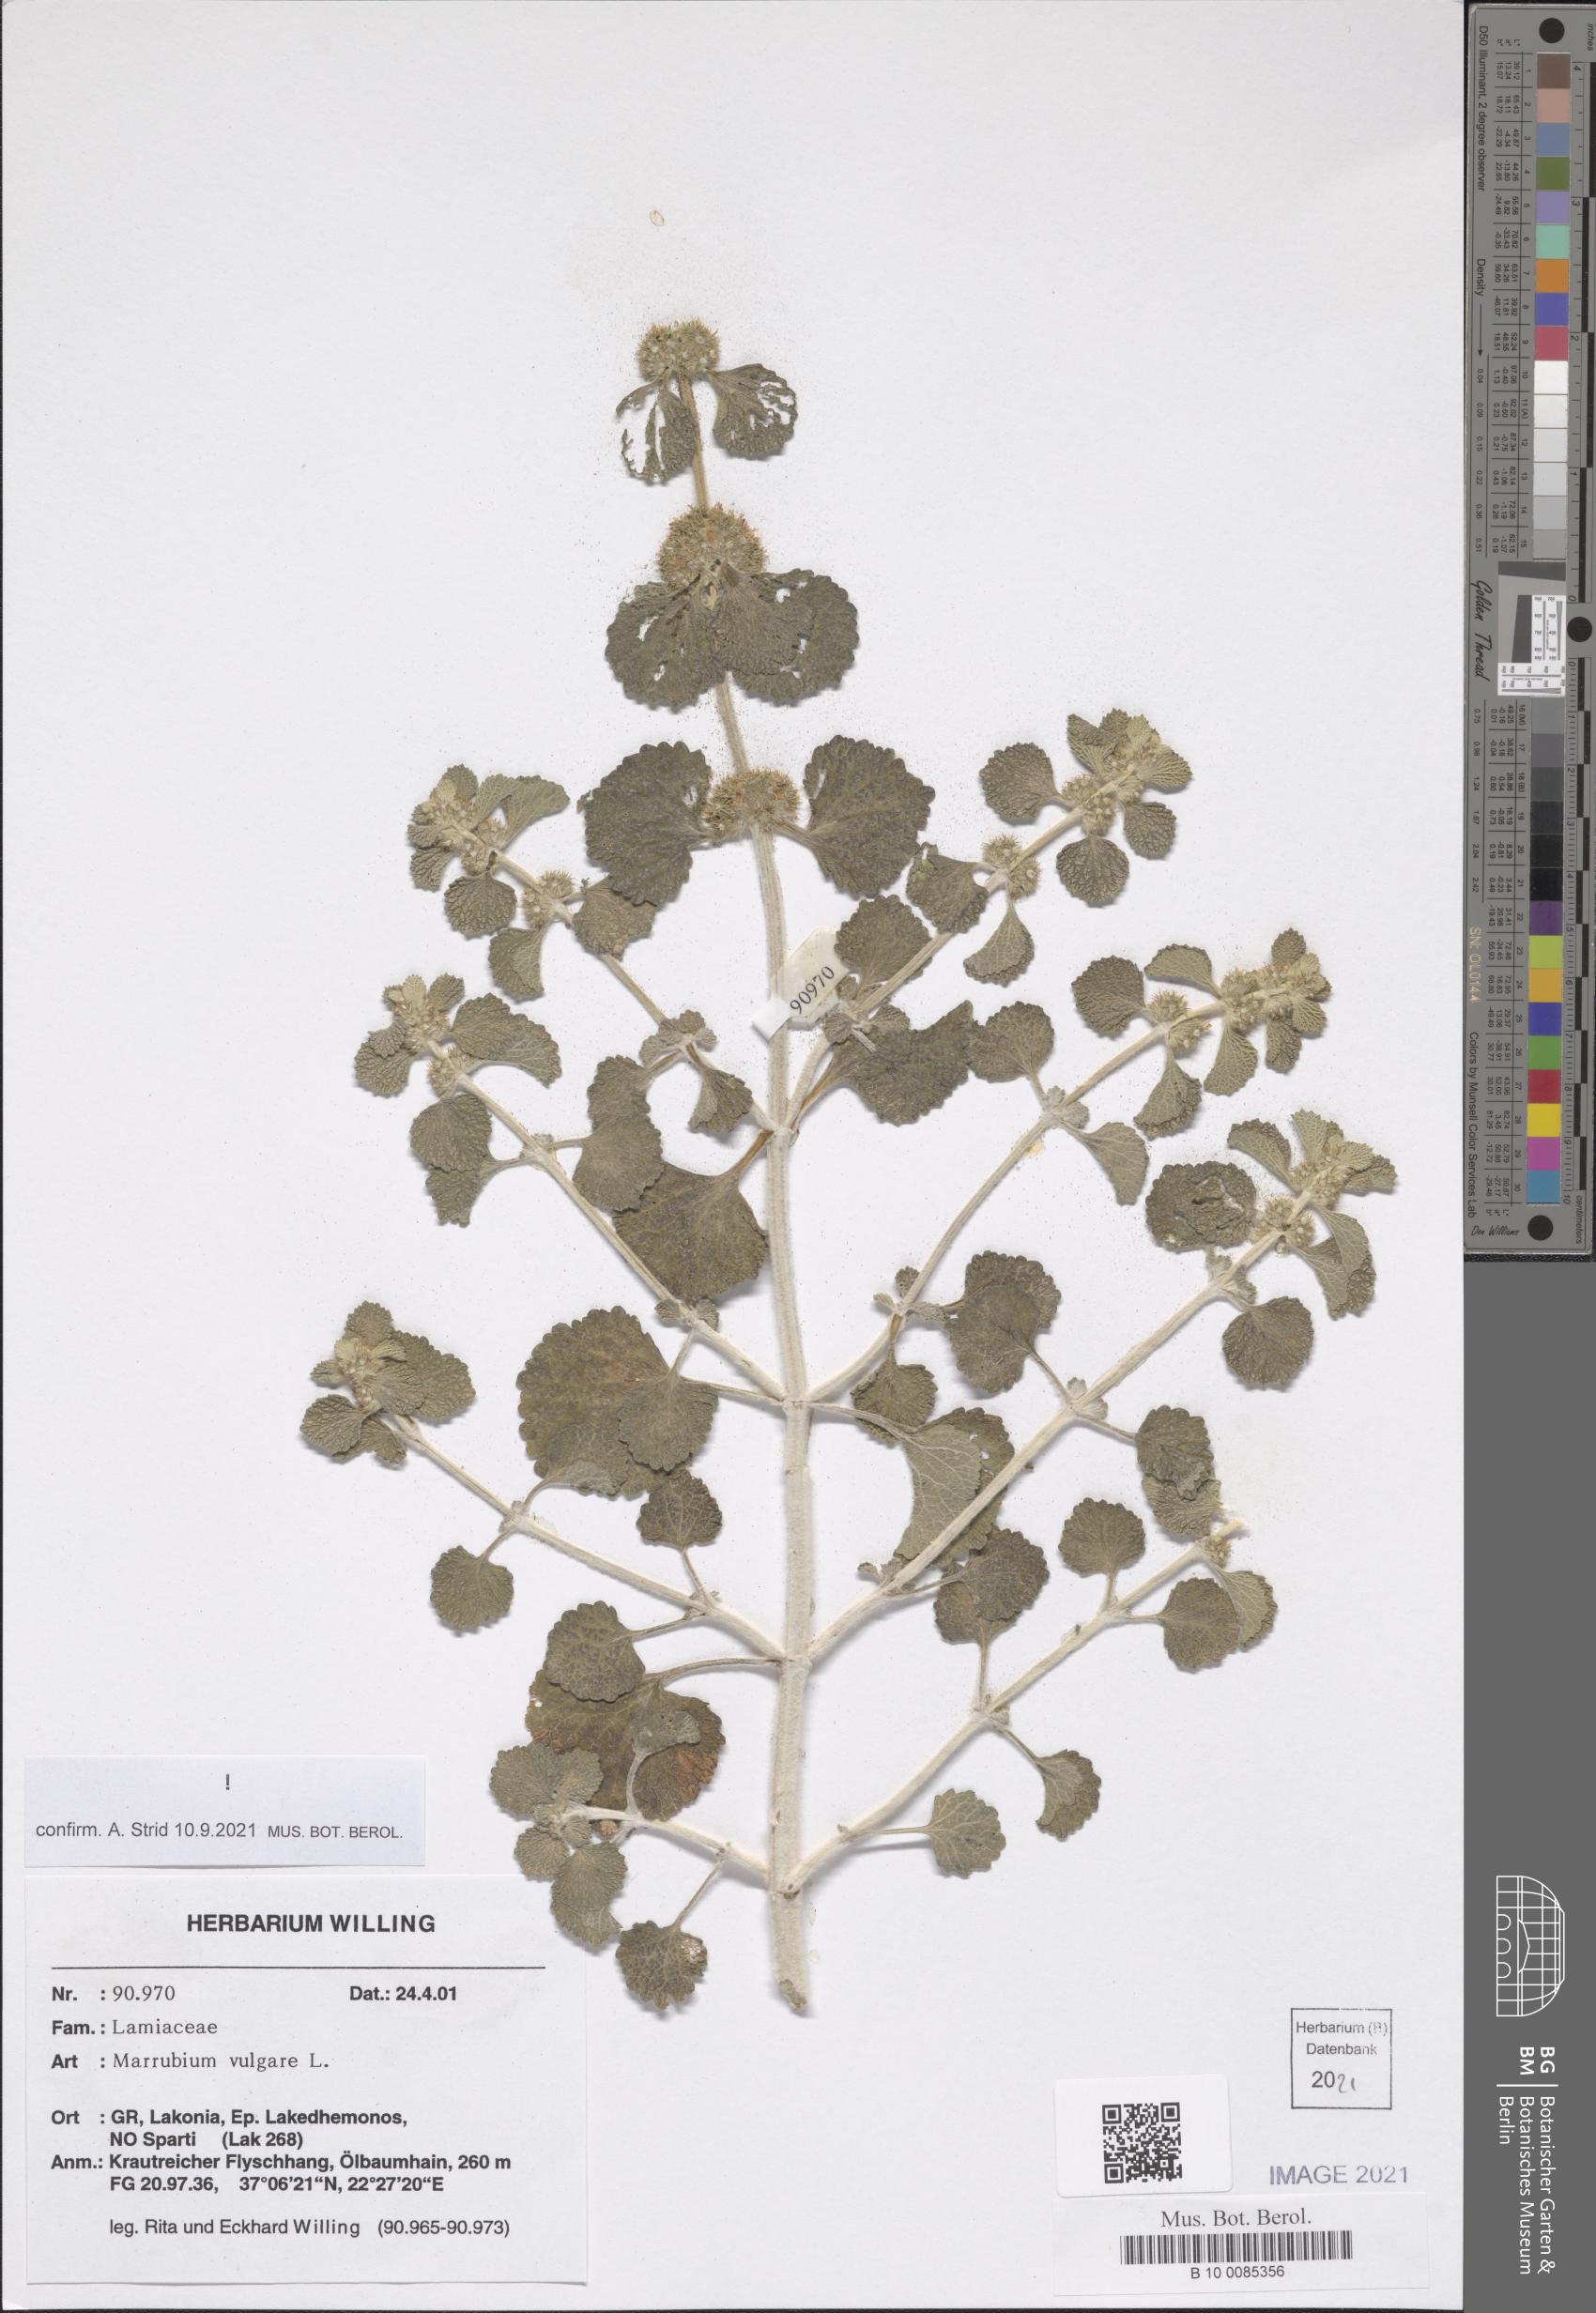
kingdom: Plantae
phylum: Tracheophyta
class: Magnoliopsida
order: Lamiales
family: Lamiaceae
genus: Marrubium
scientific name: Marrubium vulgare
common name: Horehound
